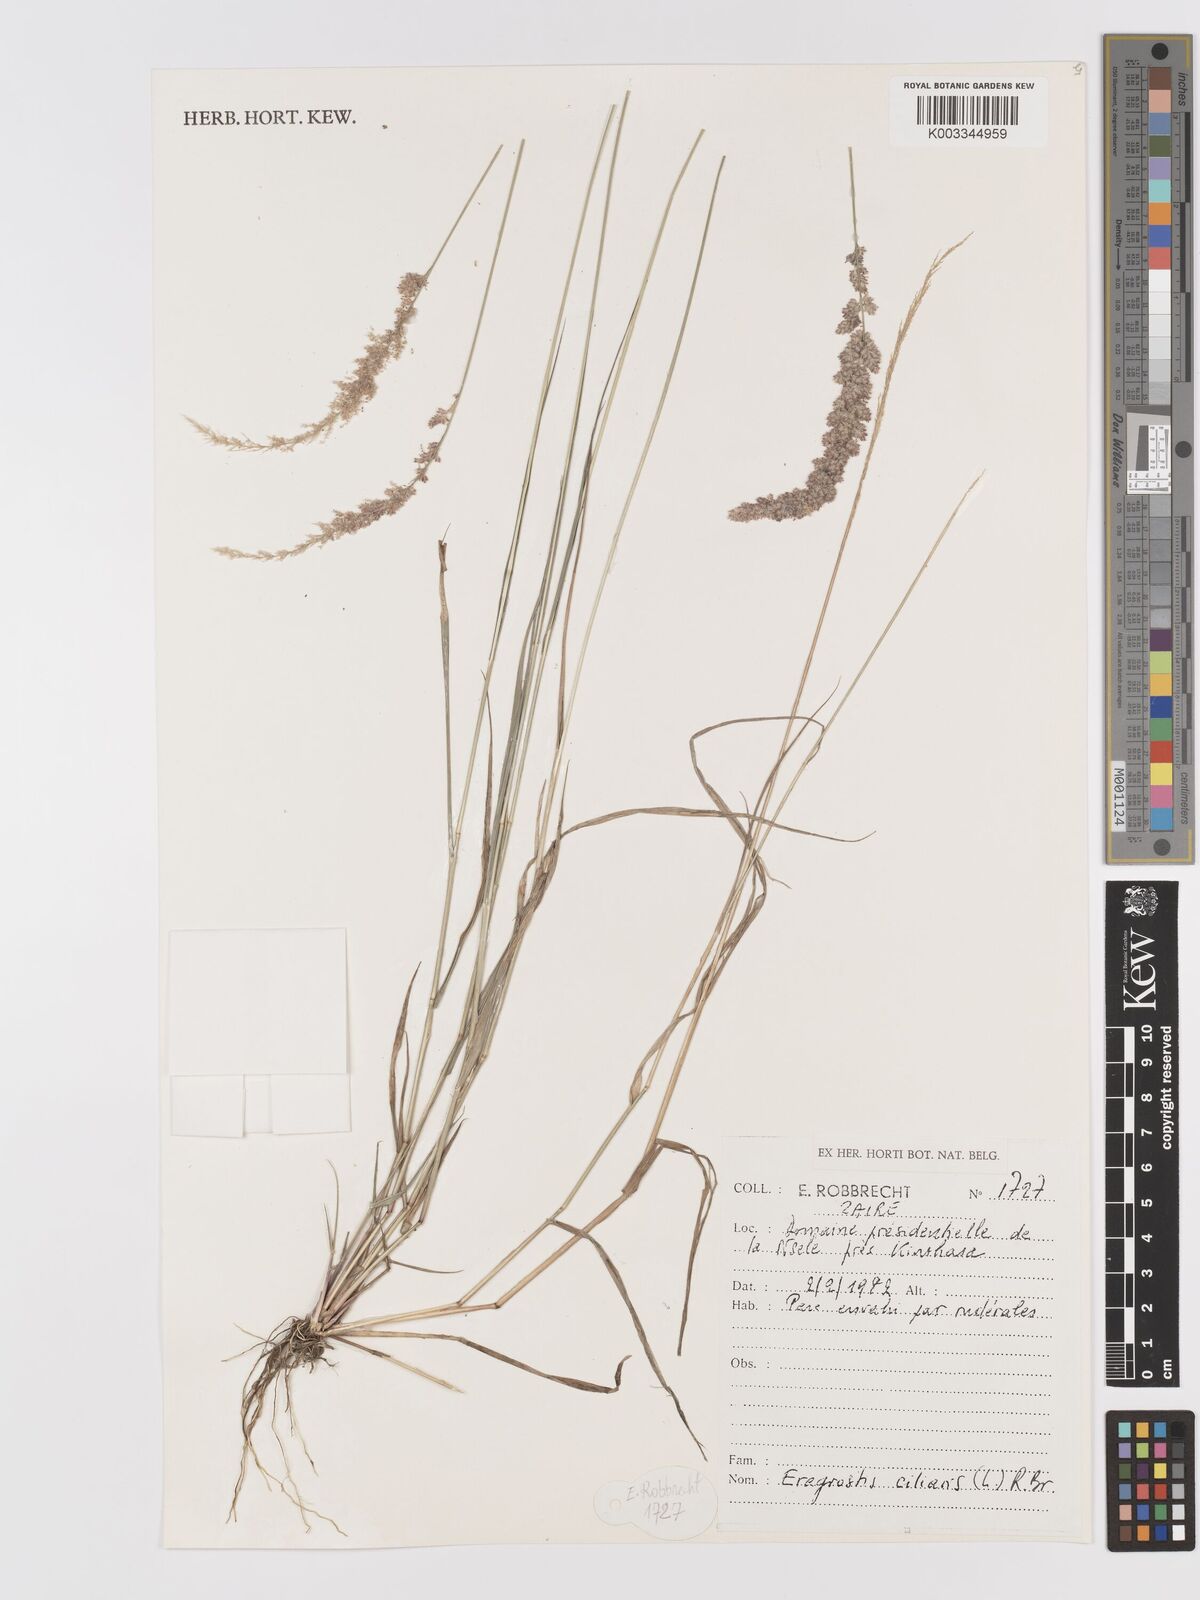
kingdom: Plantae
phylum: Tracheophyta
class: Liliopsida
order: Poales
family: Poaceae
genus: Eragrostis
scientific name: Eragrostis ciliaris
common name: Gophertail lovegrass
